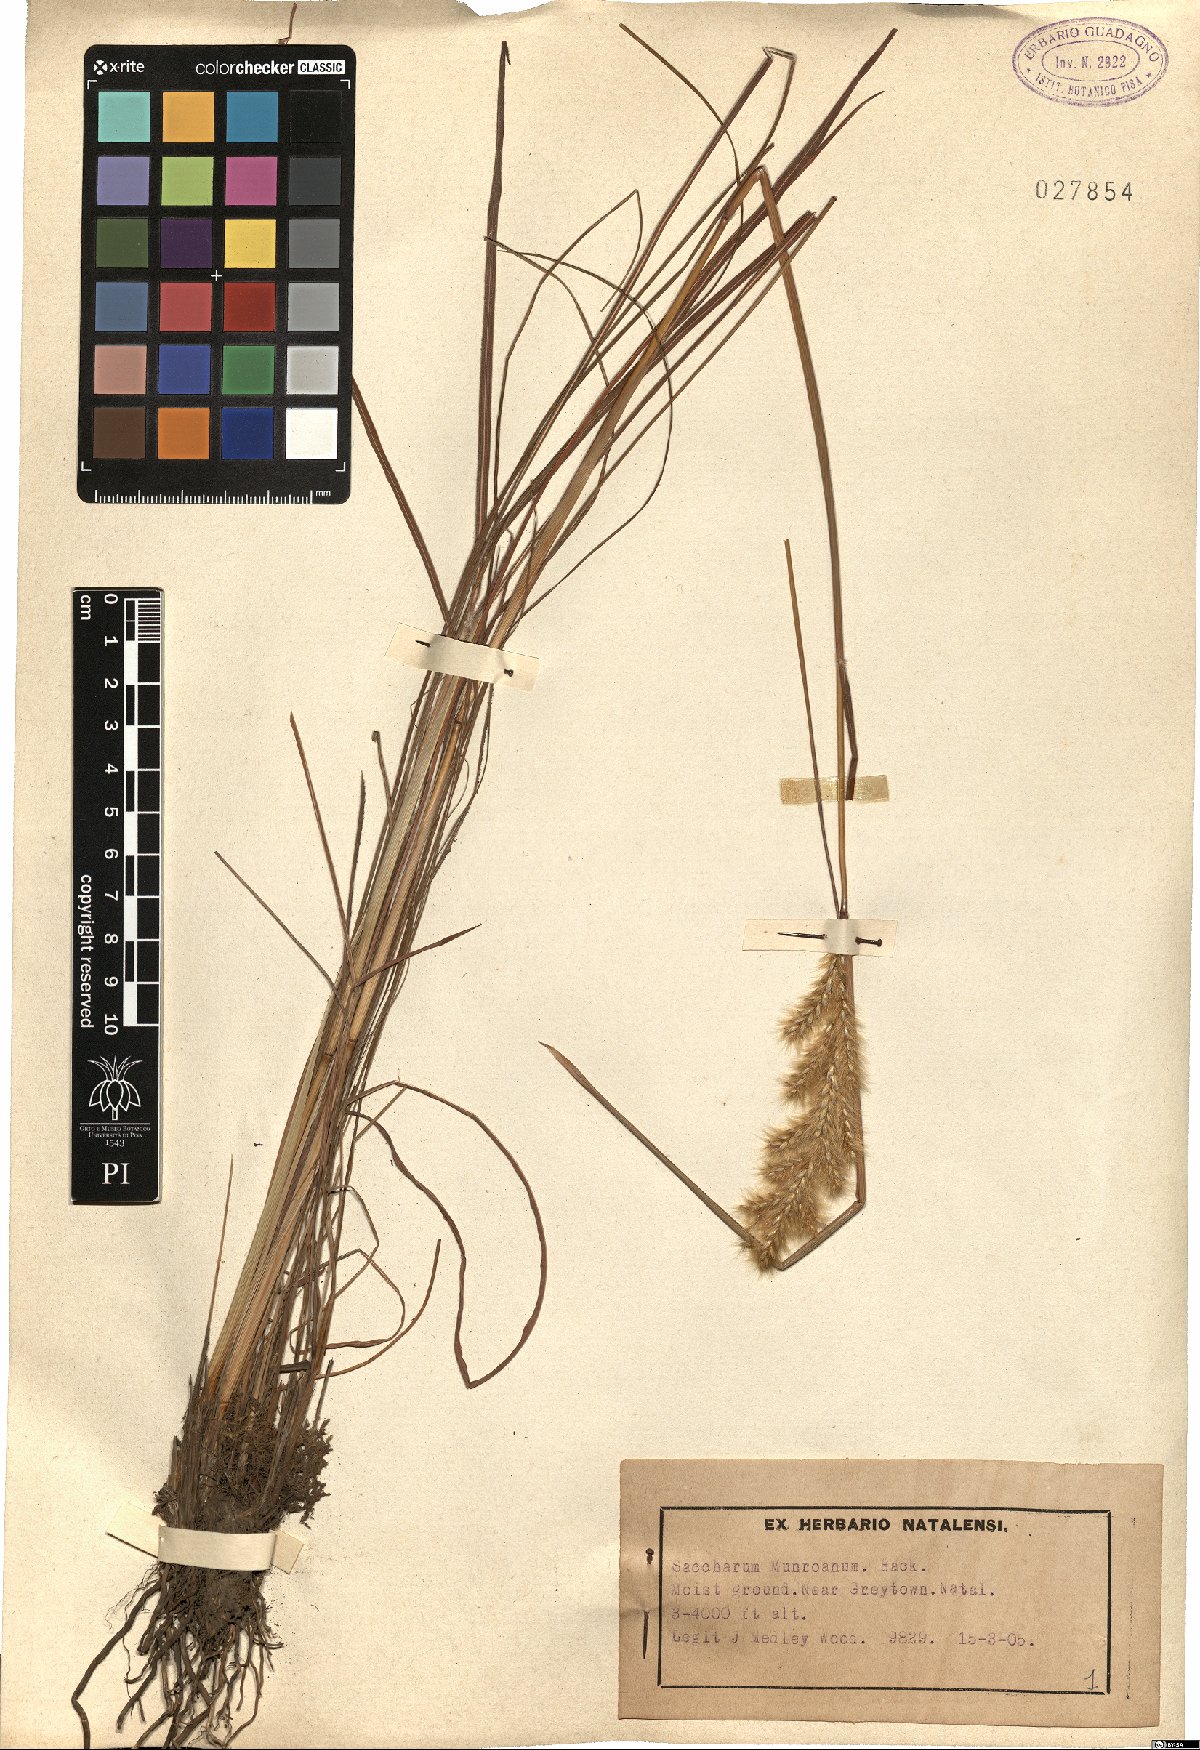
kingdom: Plantae
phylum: Tracheophyta
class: Liliopsida
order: Poales
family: Poaceae
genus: Eriochrysis
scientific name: Eriochrysis pallida
